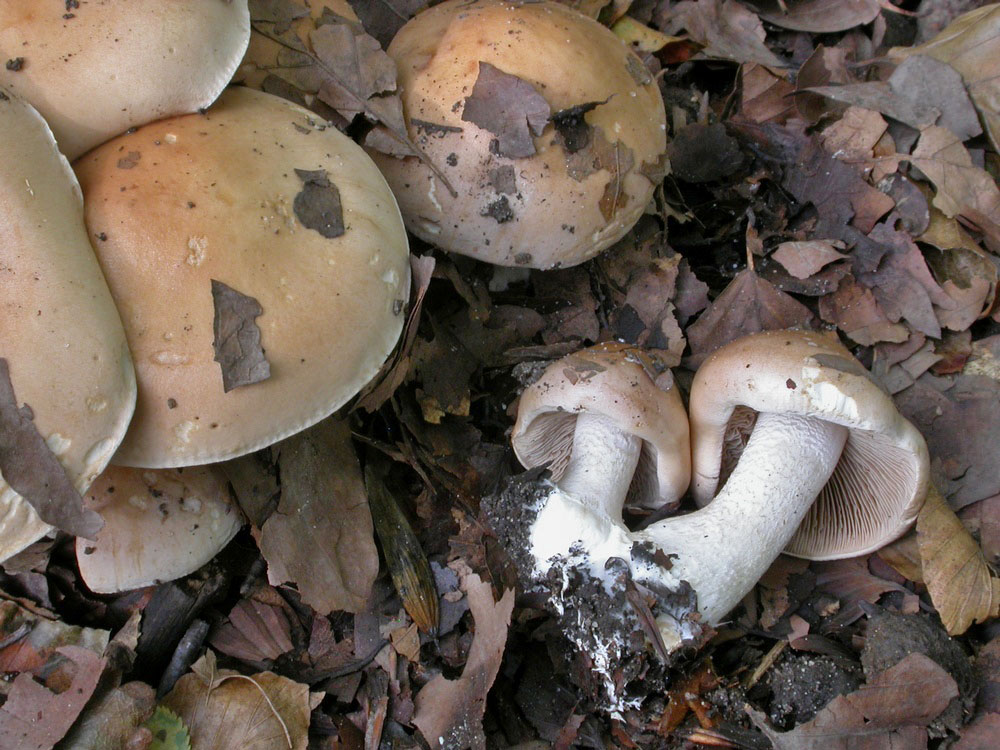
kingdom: Fungi
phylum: Basidiomycota
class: Agaricomycetes
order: Agaricales
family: Hymenogastraceae
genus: Hebeloma
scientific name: Hebeloma sinapizans
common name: ræddike-tåreblad
